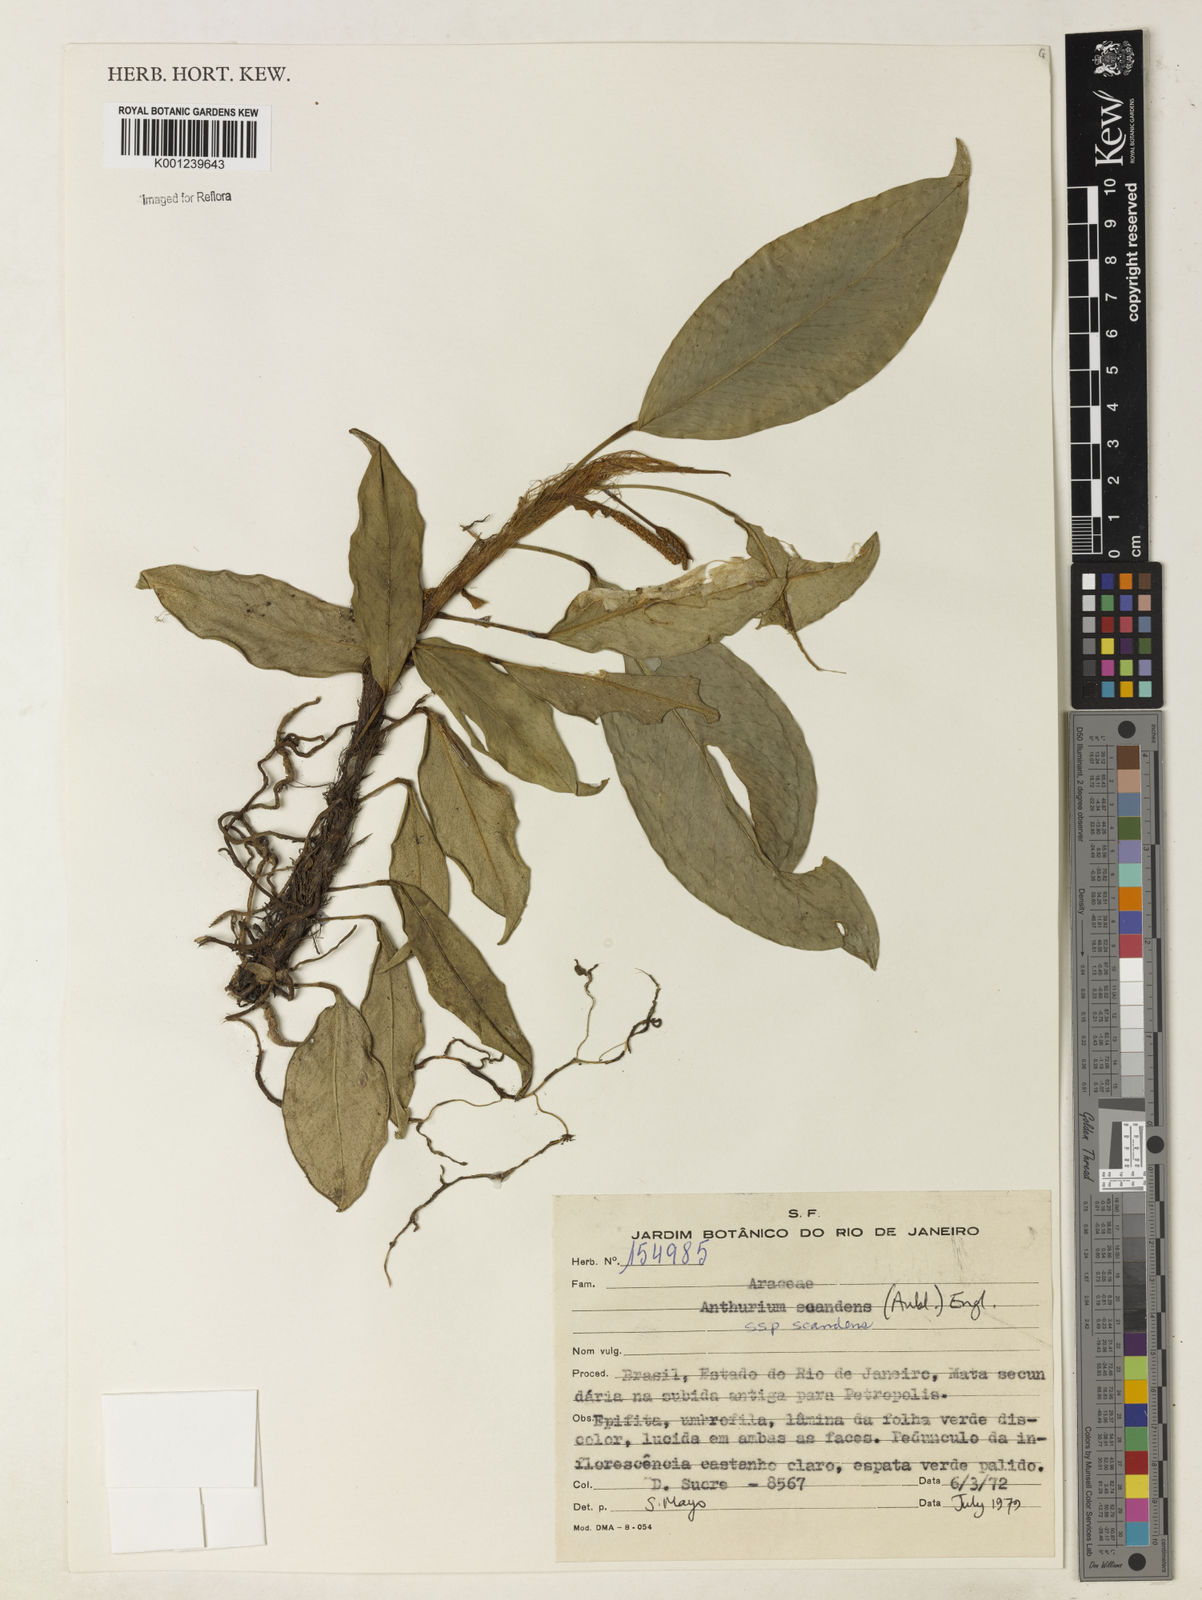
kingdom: Plantae
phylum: Tracheophyta
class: Liliopsida
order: Alismatales
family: Araceae
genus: Anthurium
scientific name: Anthurium scandens
